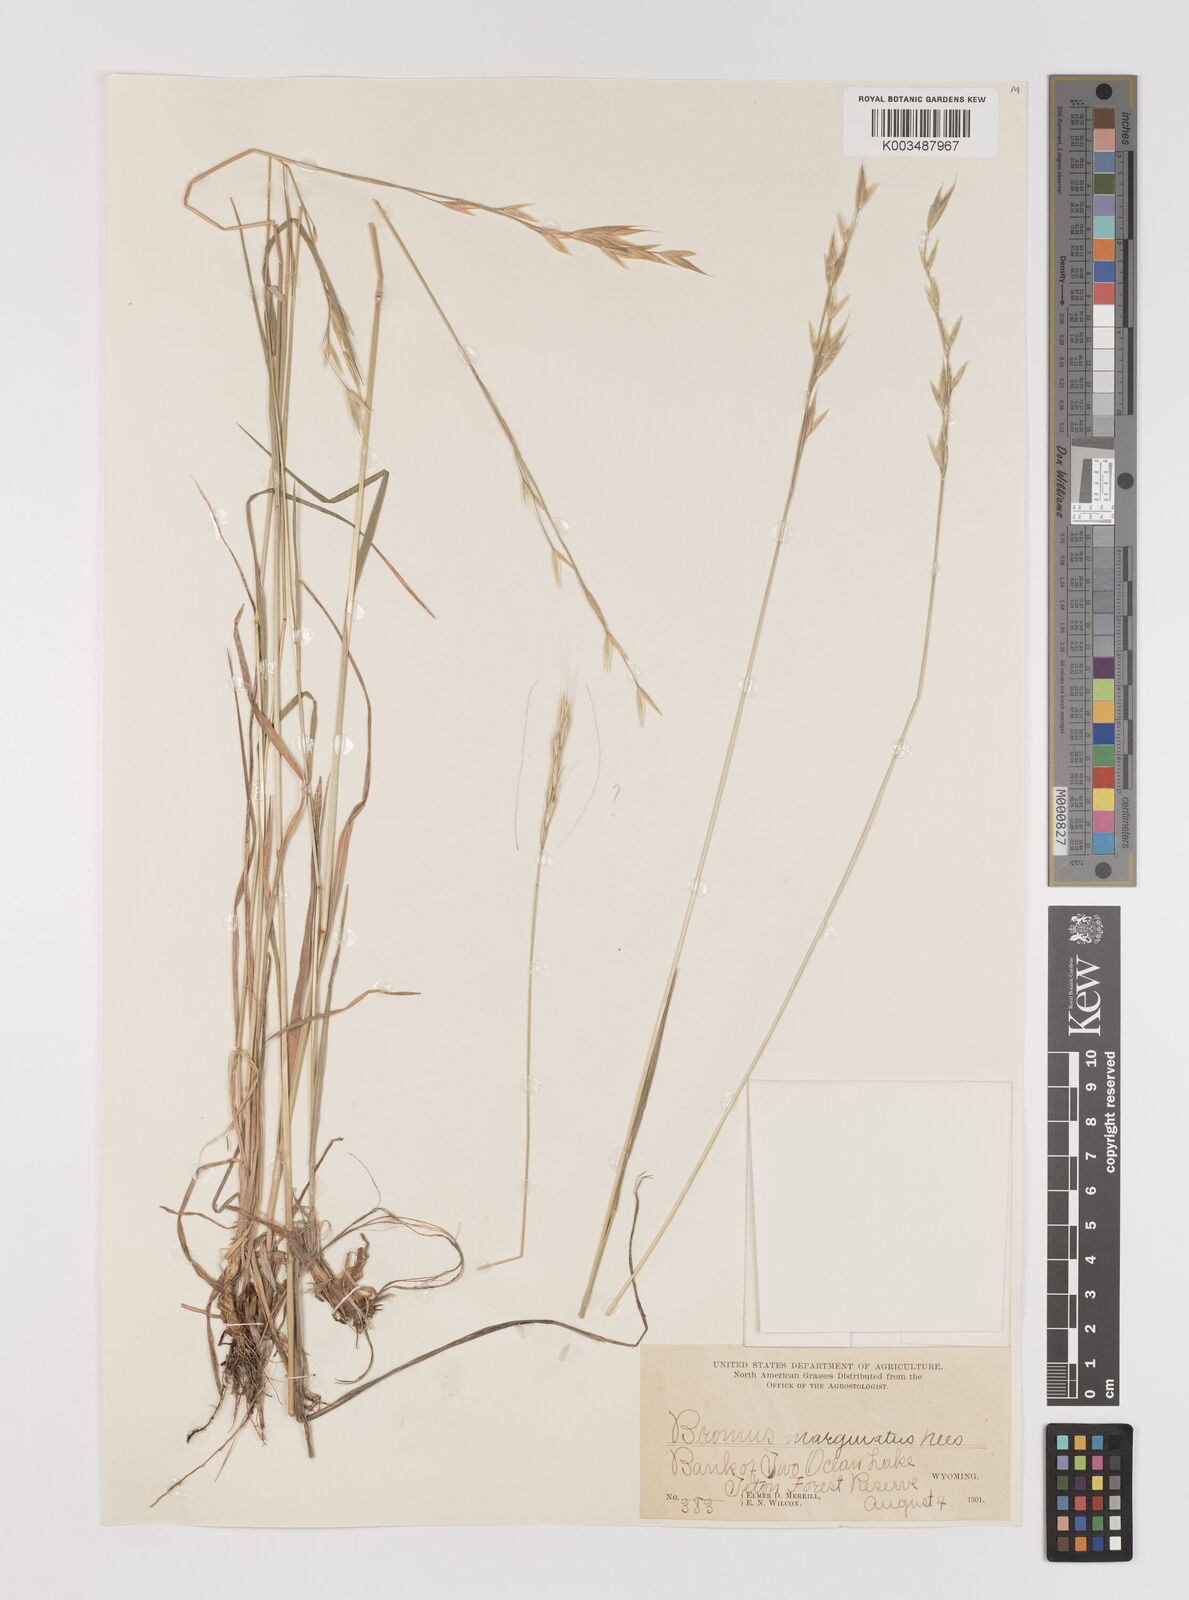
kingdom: Plantae
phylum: Tracheophyta
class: Liliopsida
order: Poales
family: Poaceae
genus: Bromus
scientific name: Bromus marginatus
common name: Western brome
